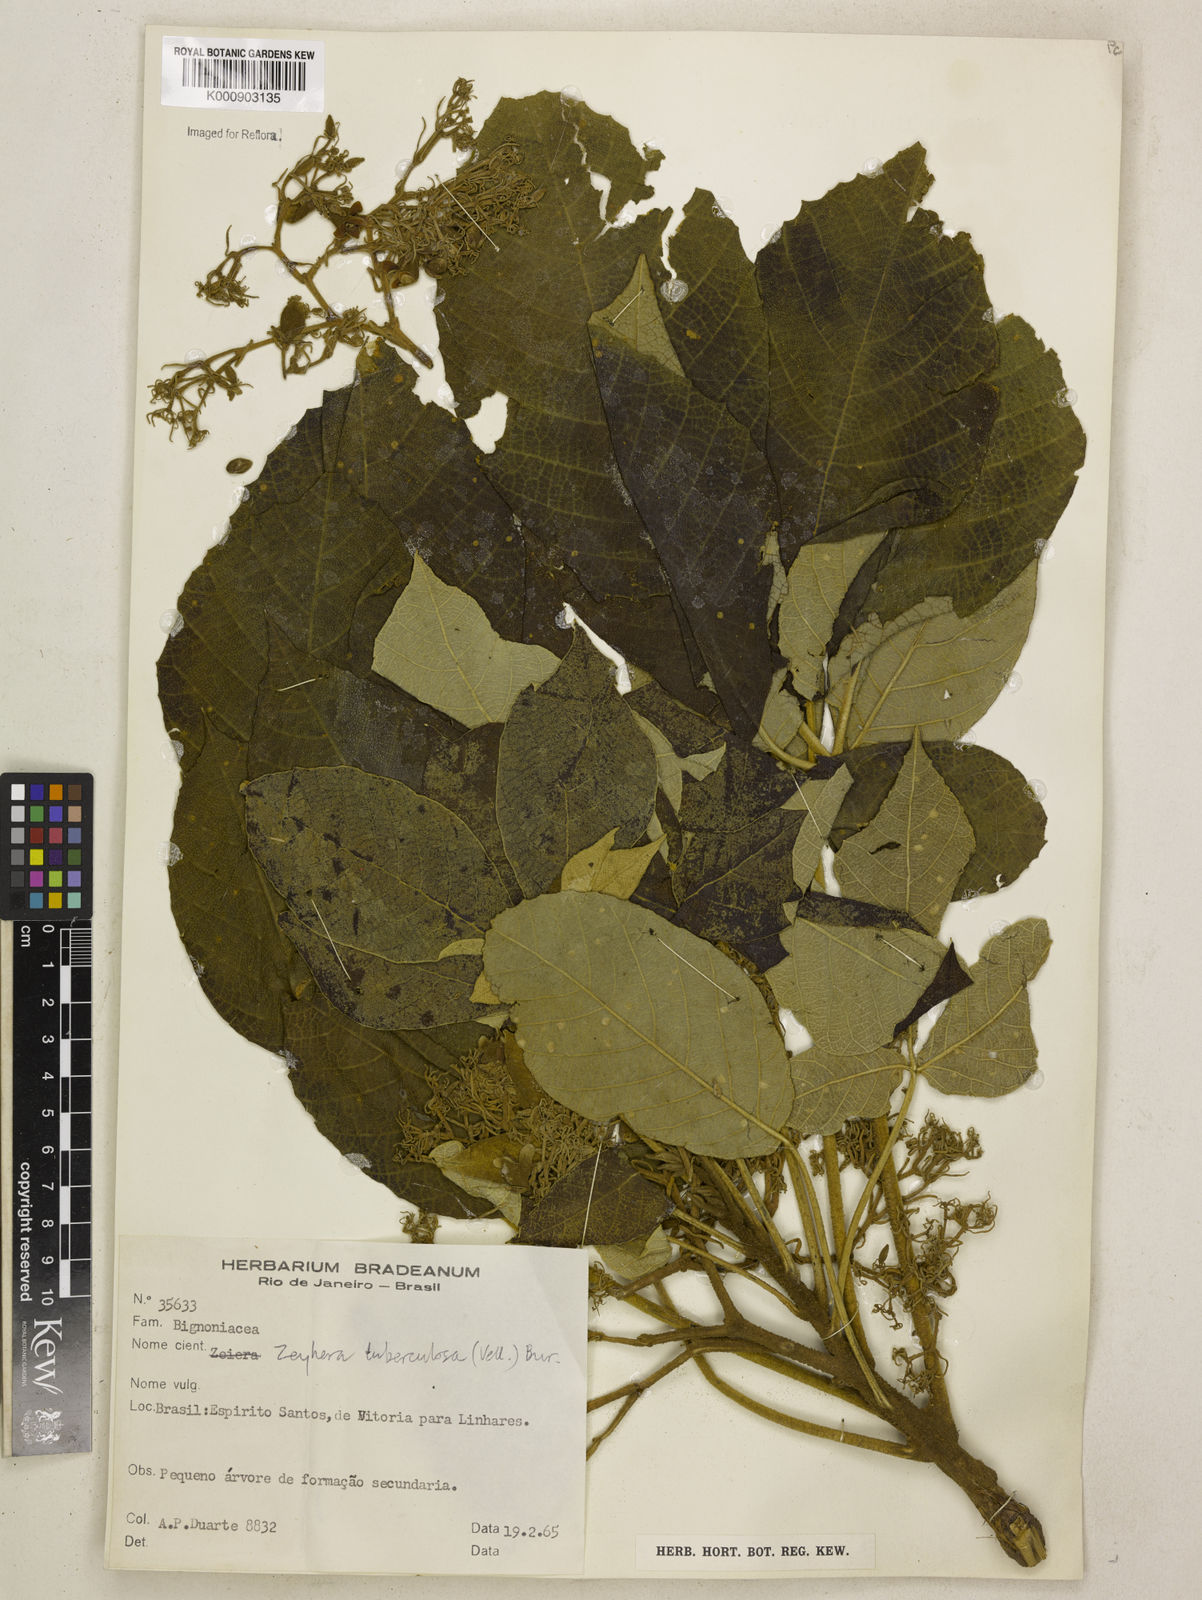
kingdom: Plantae
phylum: Tracheophyta
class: Magnoliopsida
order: Lamiales
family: Bignoniaceae
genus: Zeyheria
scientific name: Zeyheria
